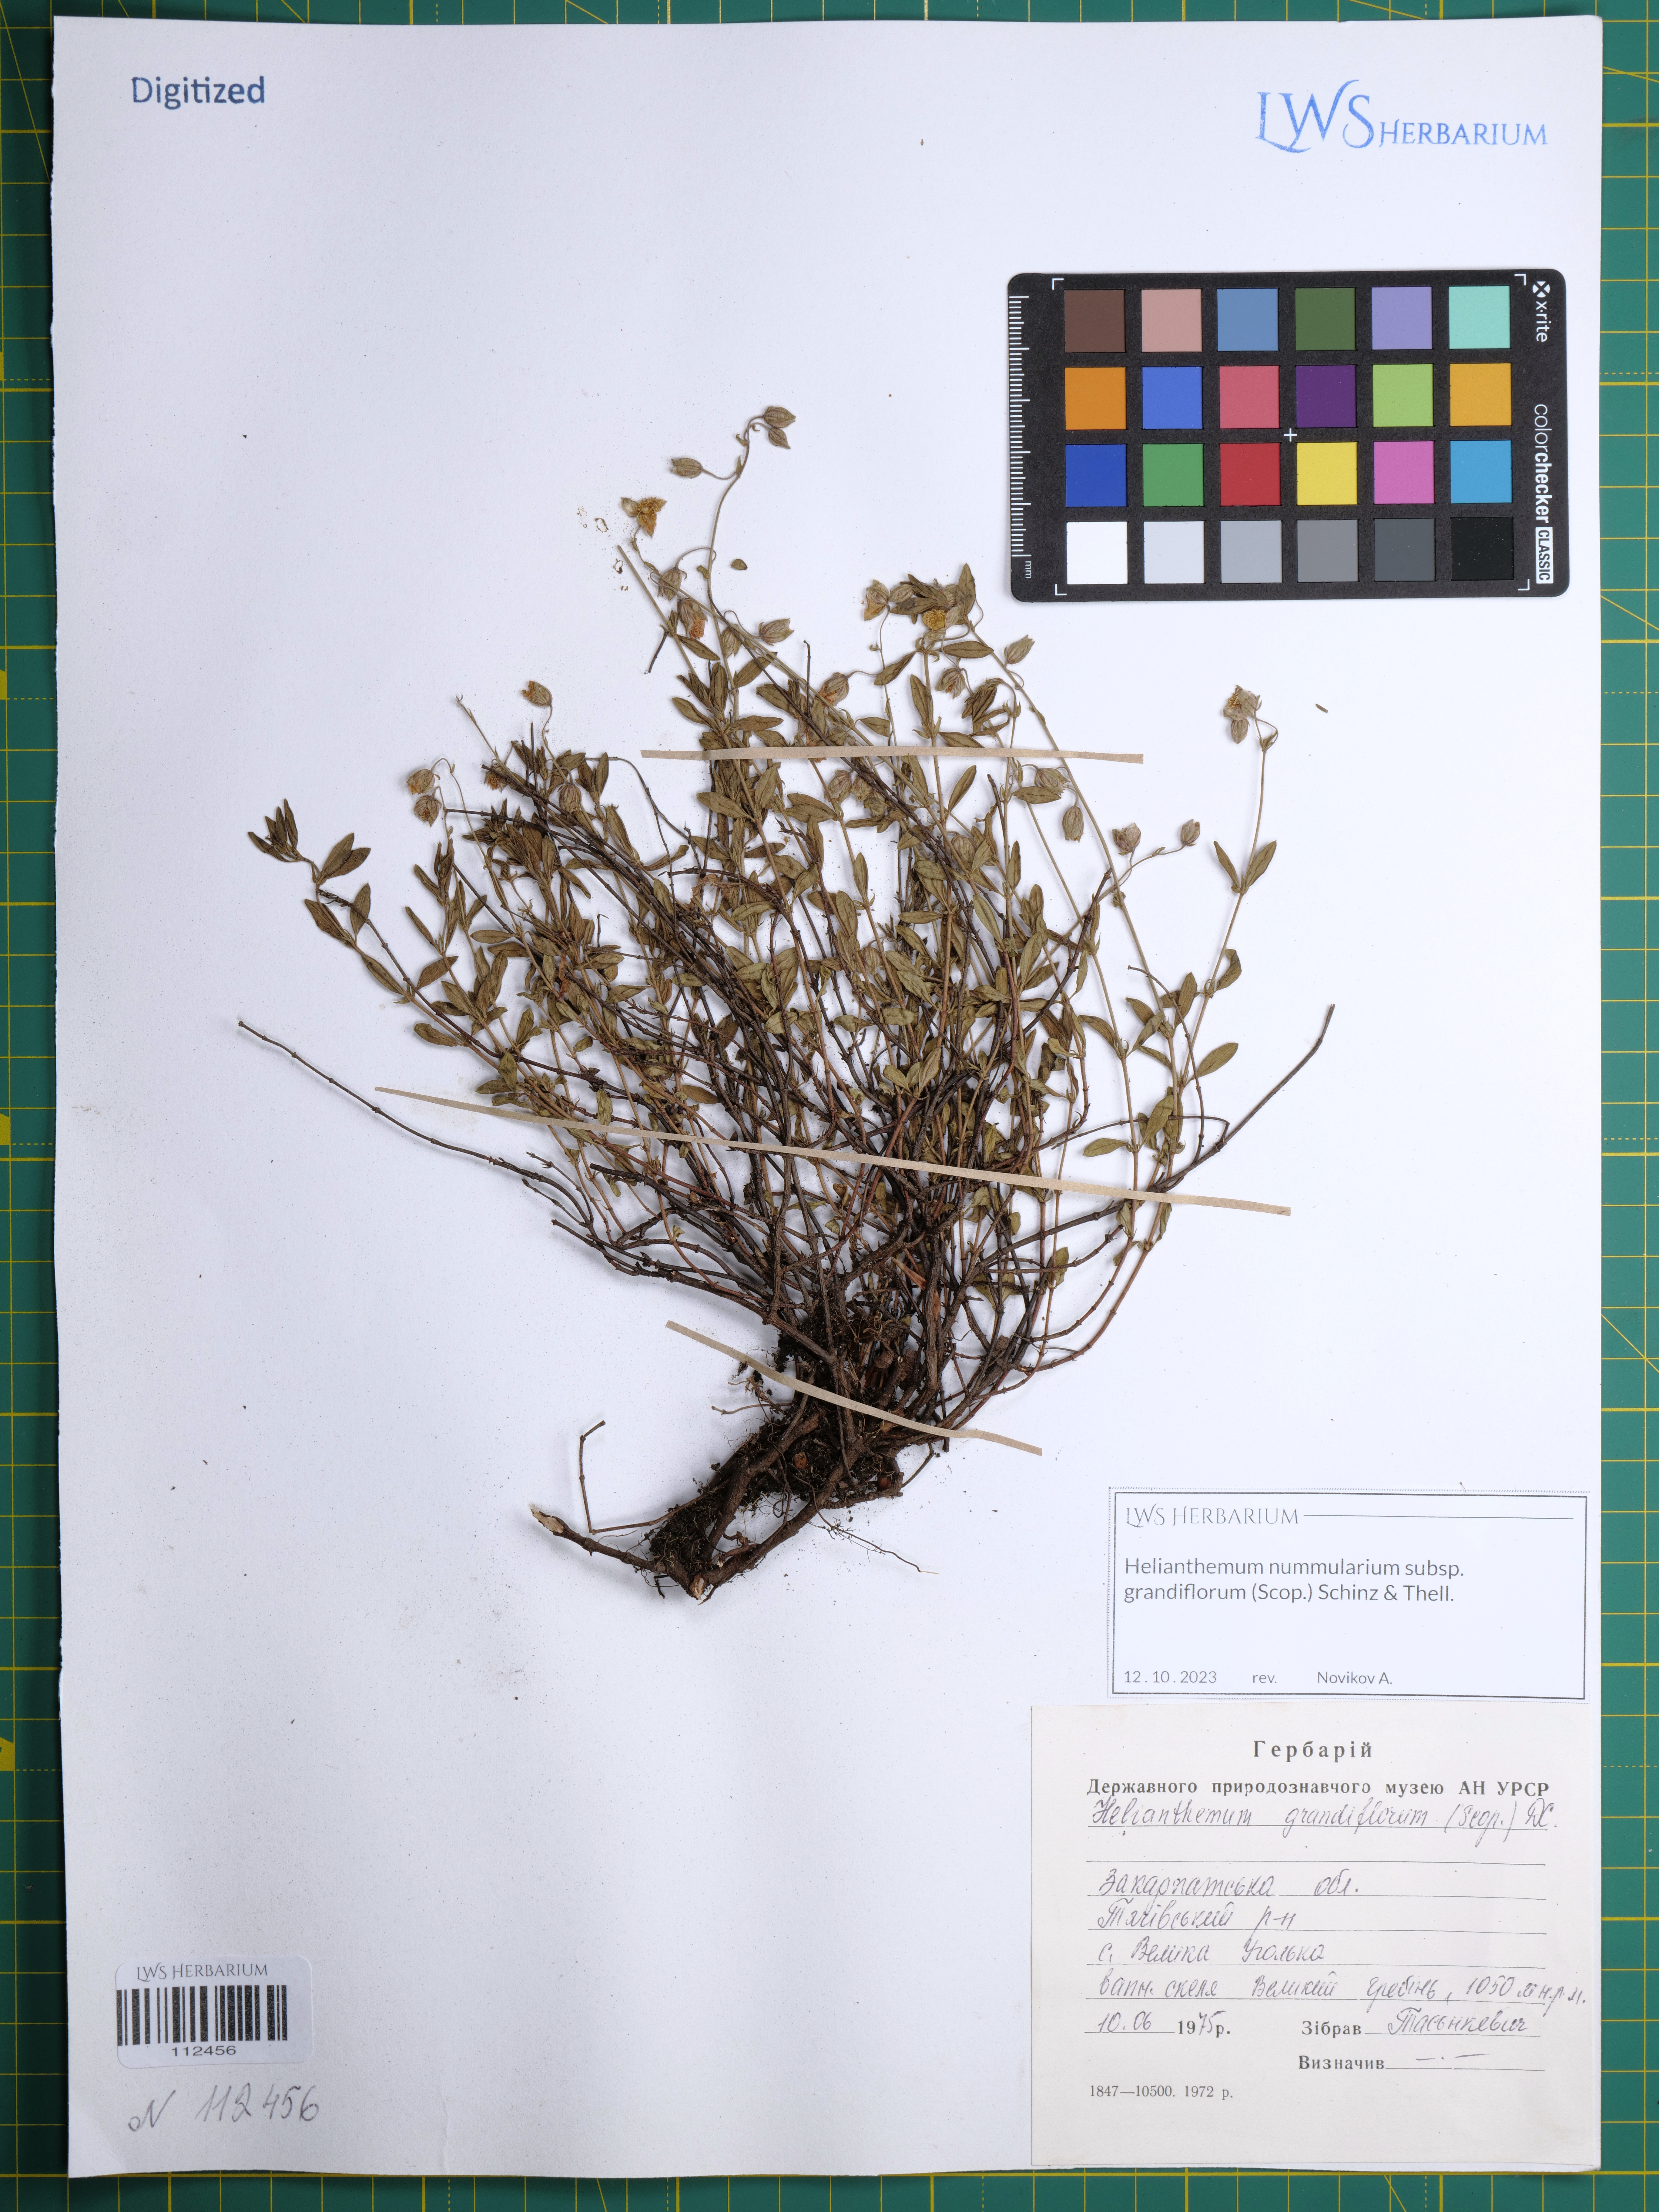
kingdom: Plantae
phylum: Tracheophyta
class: Magnoliopsida
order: Malvales
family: Cistaceae
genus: Helianthemum
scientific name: Helianthemum nummularium
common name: Common rock-rose
